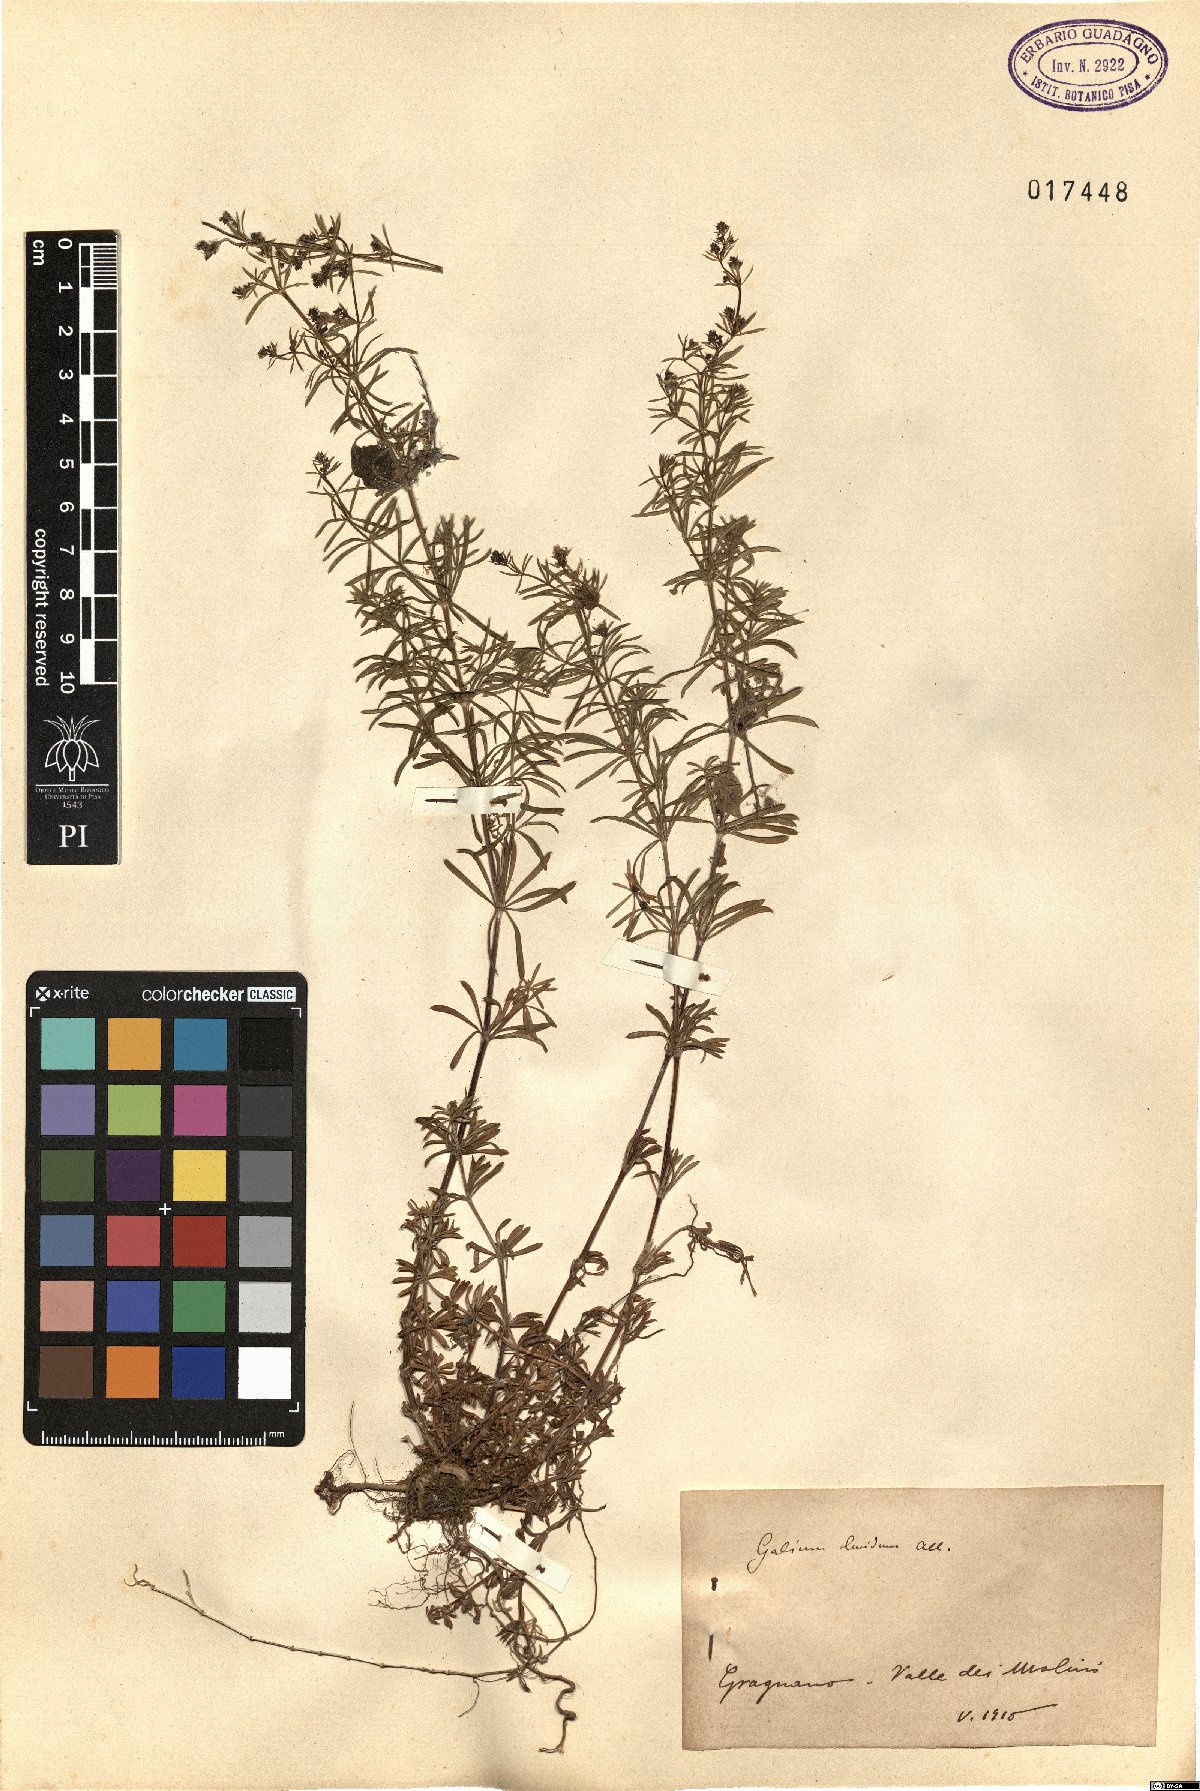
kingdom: Plantae
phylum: Tracheophyta
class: Magnoliopsida
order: Gentianales
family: Rubiaceae
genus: Galium
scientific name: Galium lucidum
